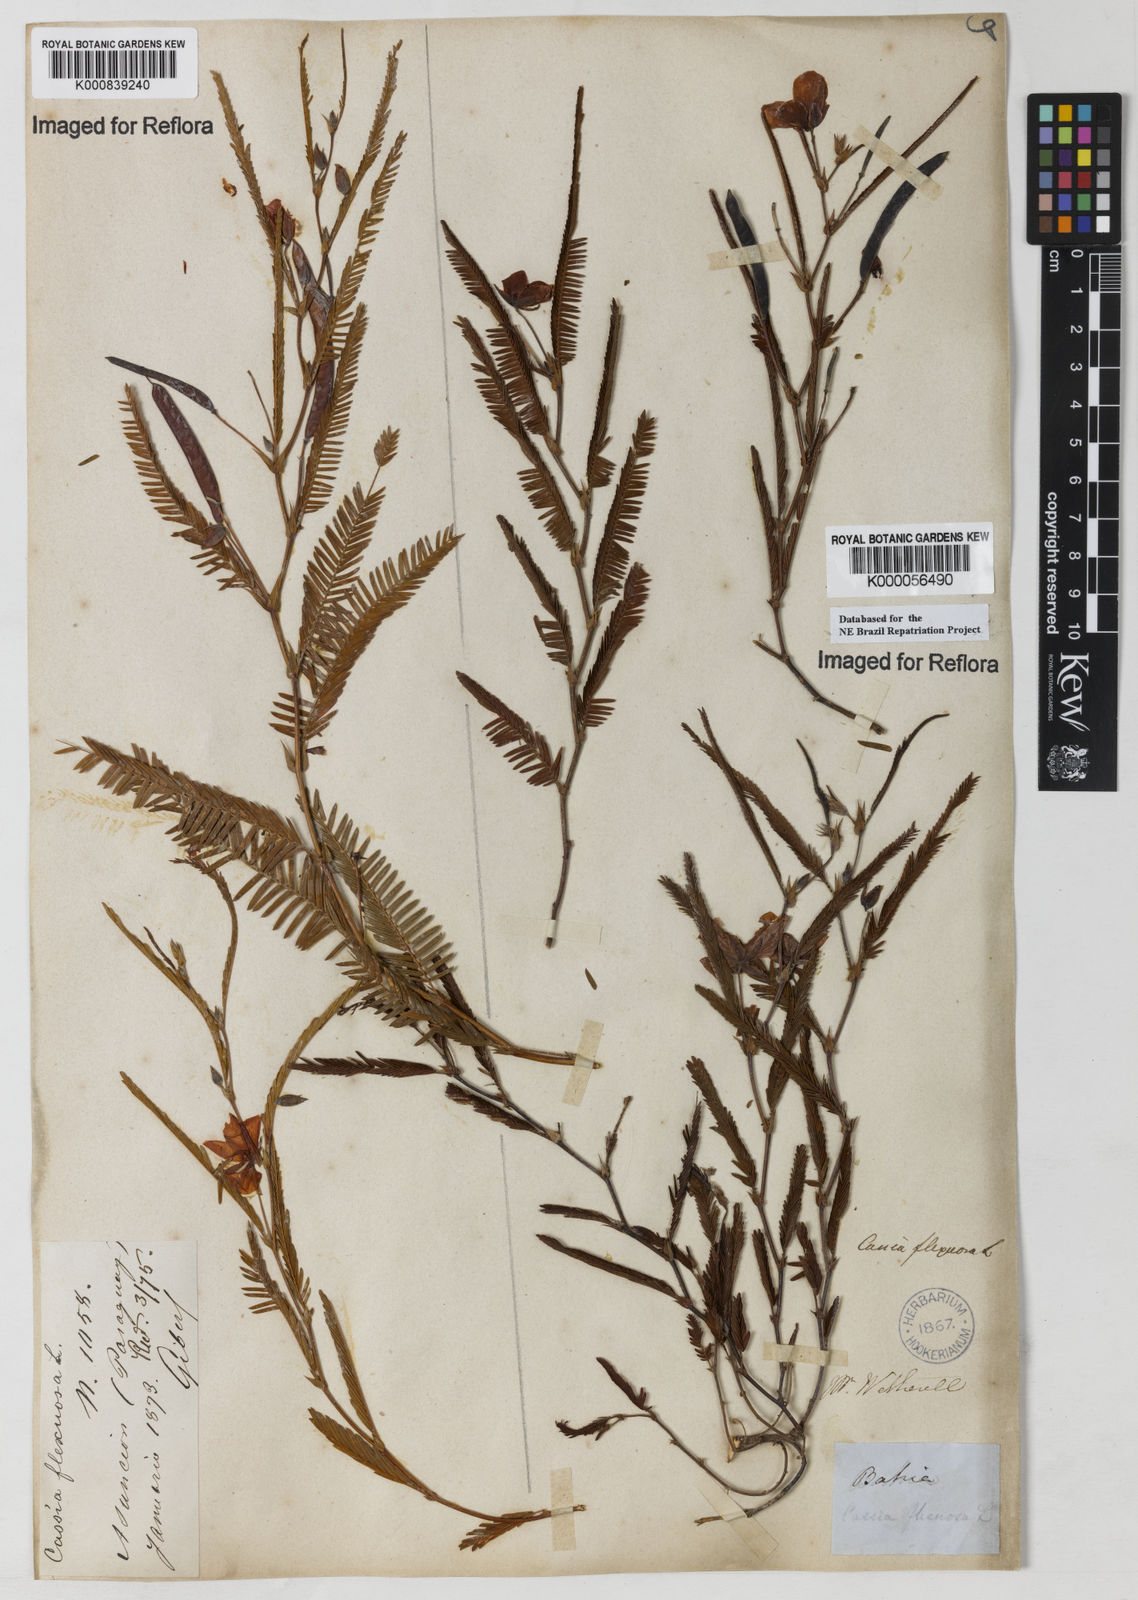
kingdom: Plantae
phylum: Tracheophyta
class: Magnoliopsida
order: Fabales
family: Fabaceae
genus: Chamaecrista
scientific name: Chamaecrista flexuosa
